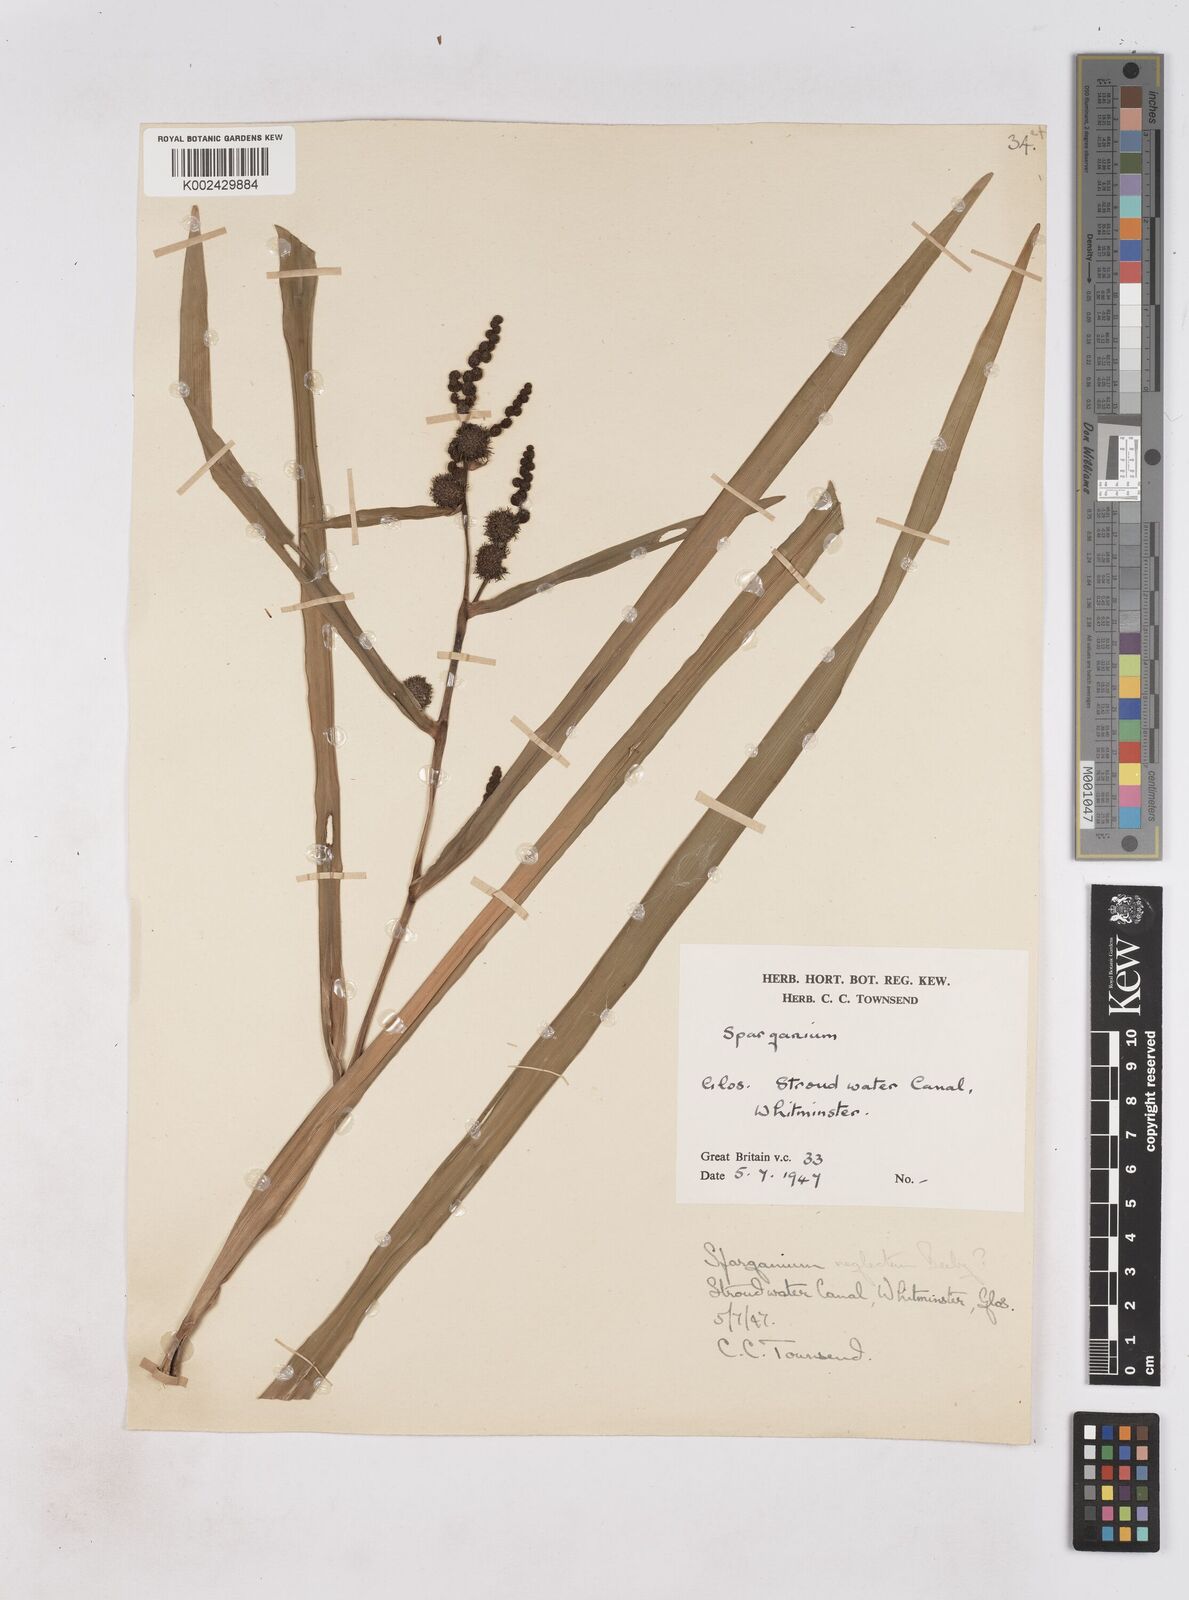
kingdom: Plantae
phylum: Tracheophyta
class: Liliopsida
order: Poales
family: Typhaceae
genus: Sparganium
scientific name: Sparganium erectum
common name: Branched bur-reed
